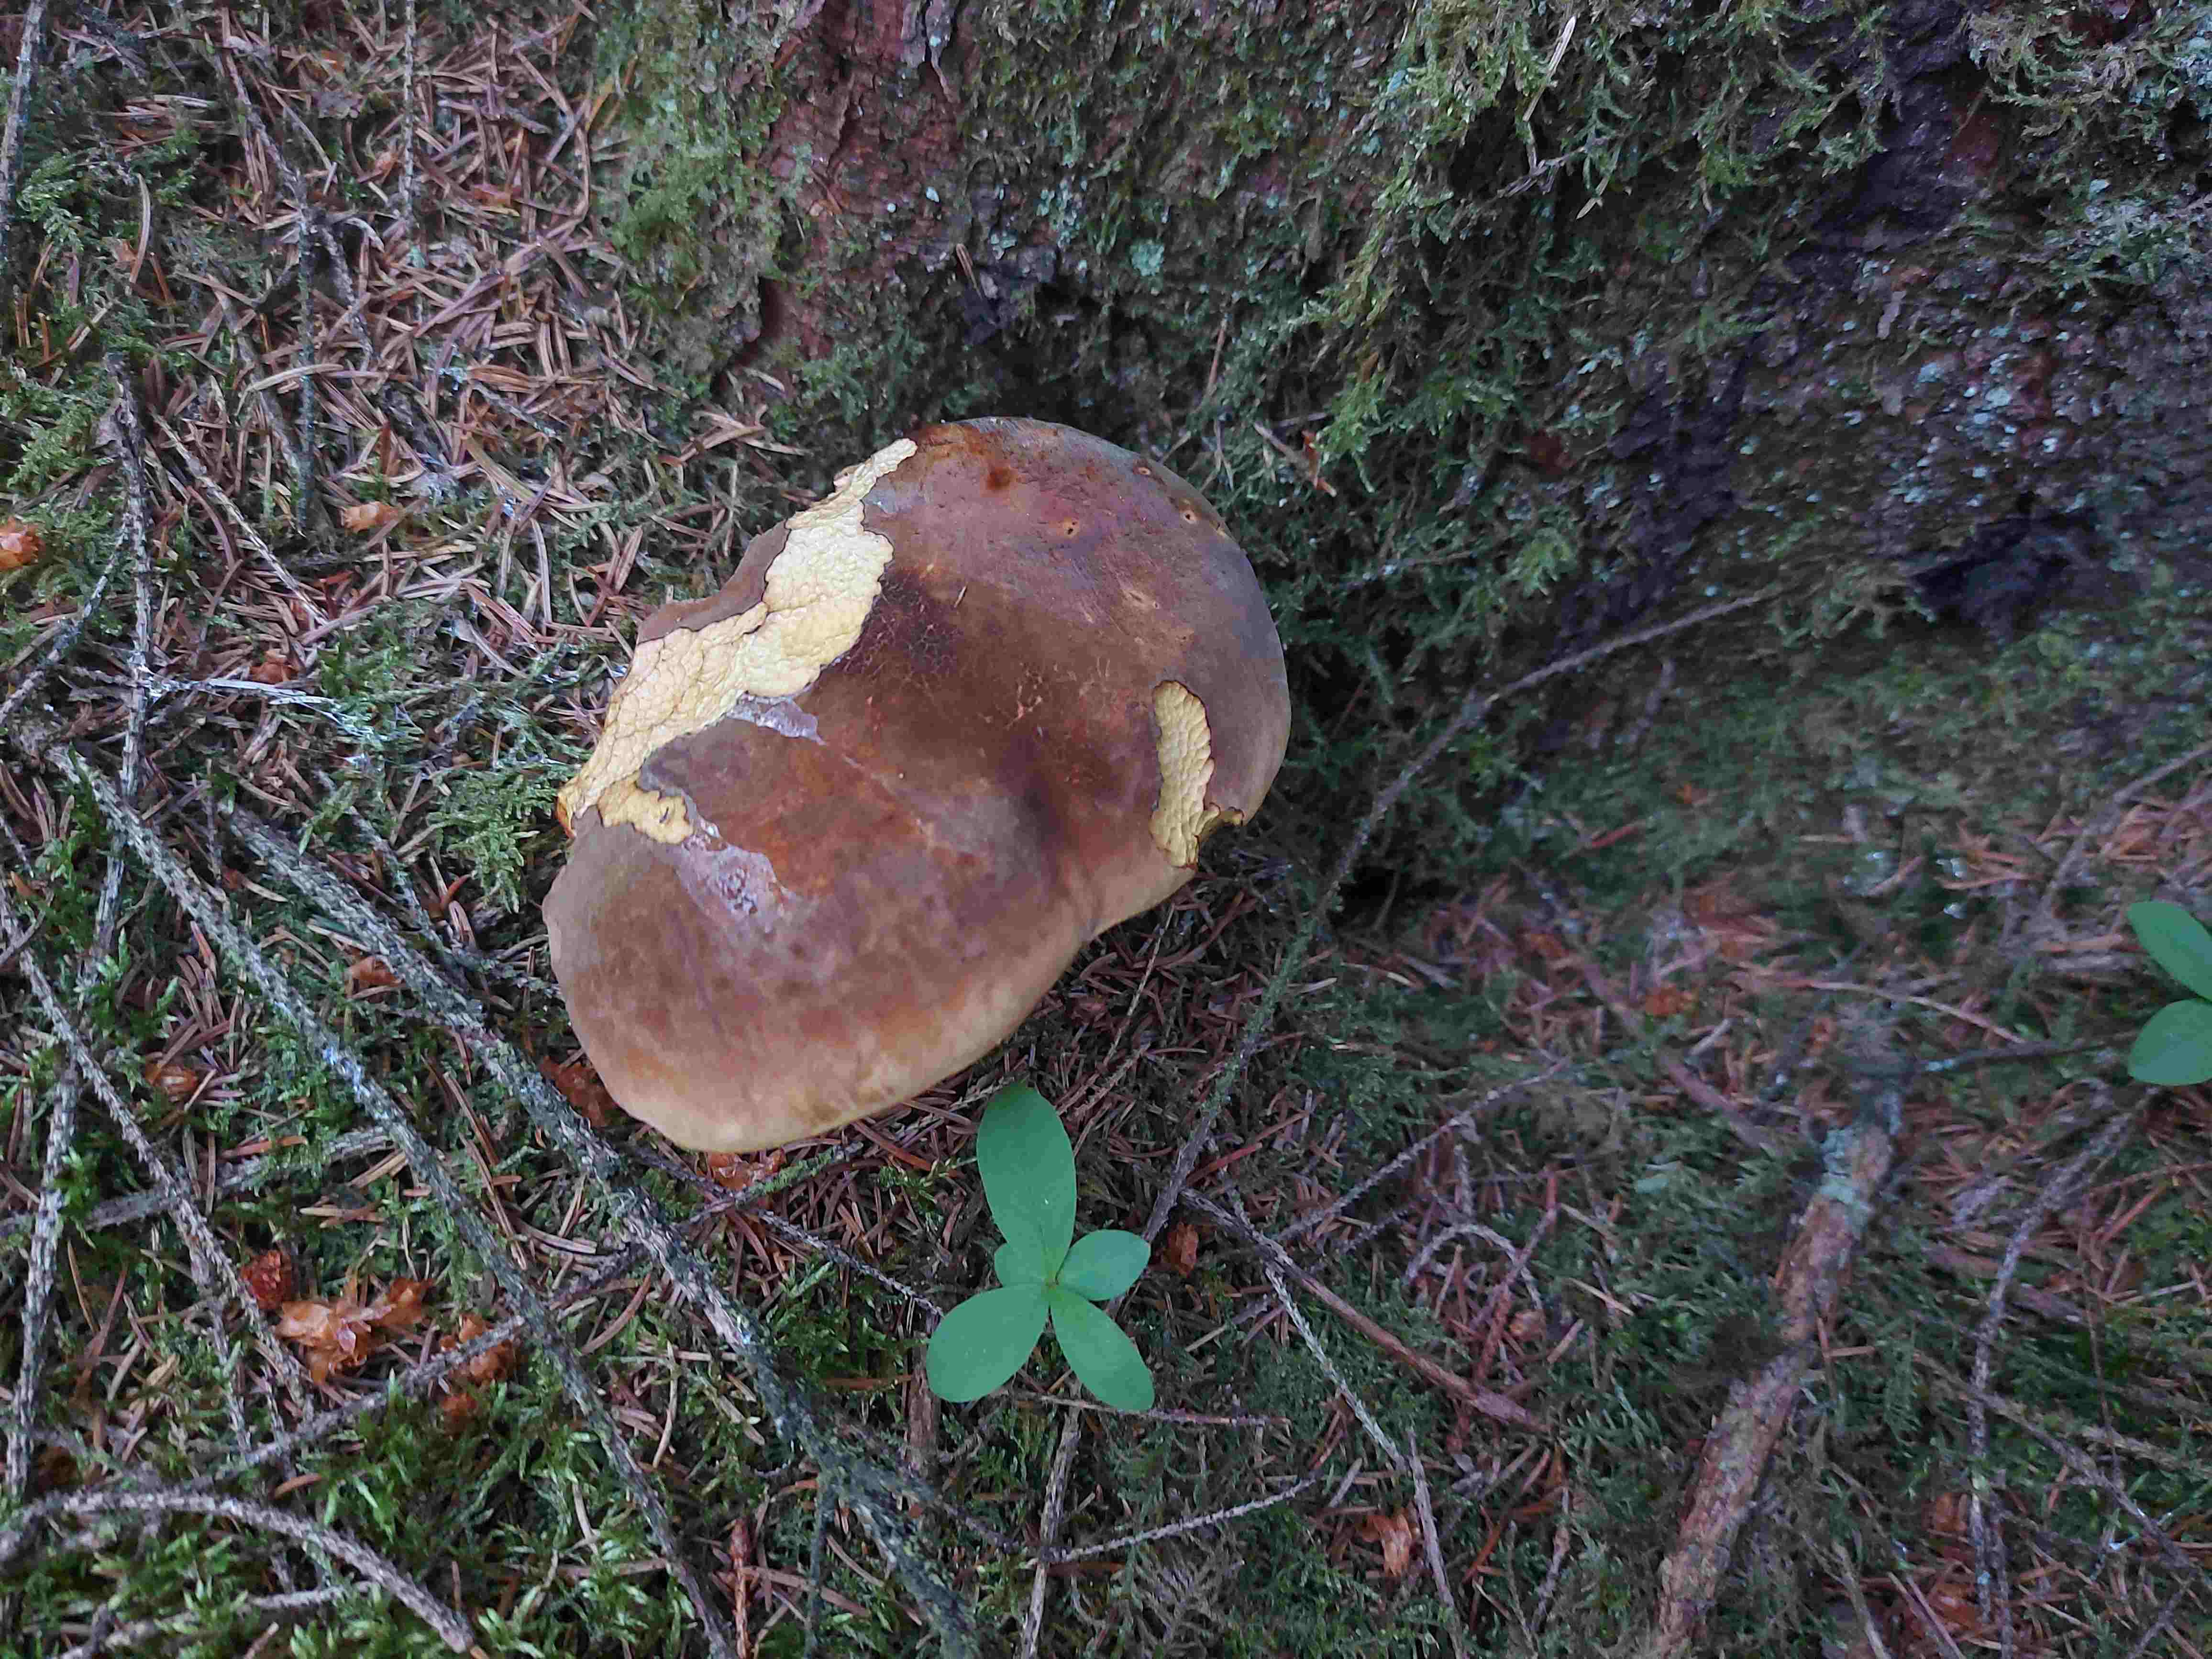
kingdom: Fungi
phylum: Basidiomycota
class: Agaricomycetes
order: Boletales
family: Boletaceae
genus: Neoboletus
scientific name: Neoboletus erythropus
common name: punktstokket indigorørhat
